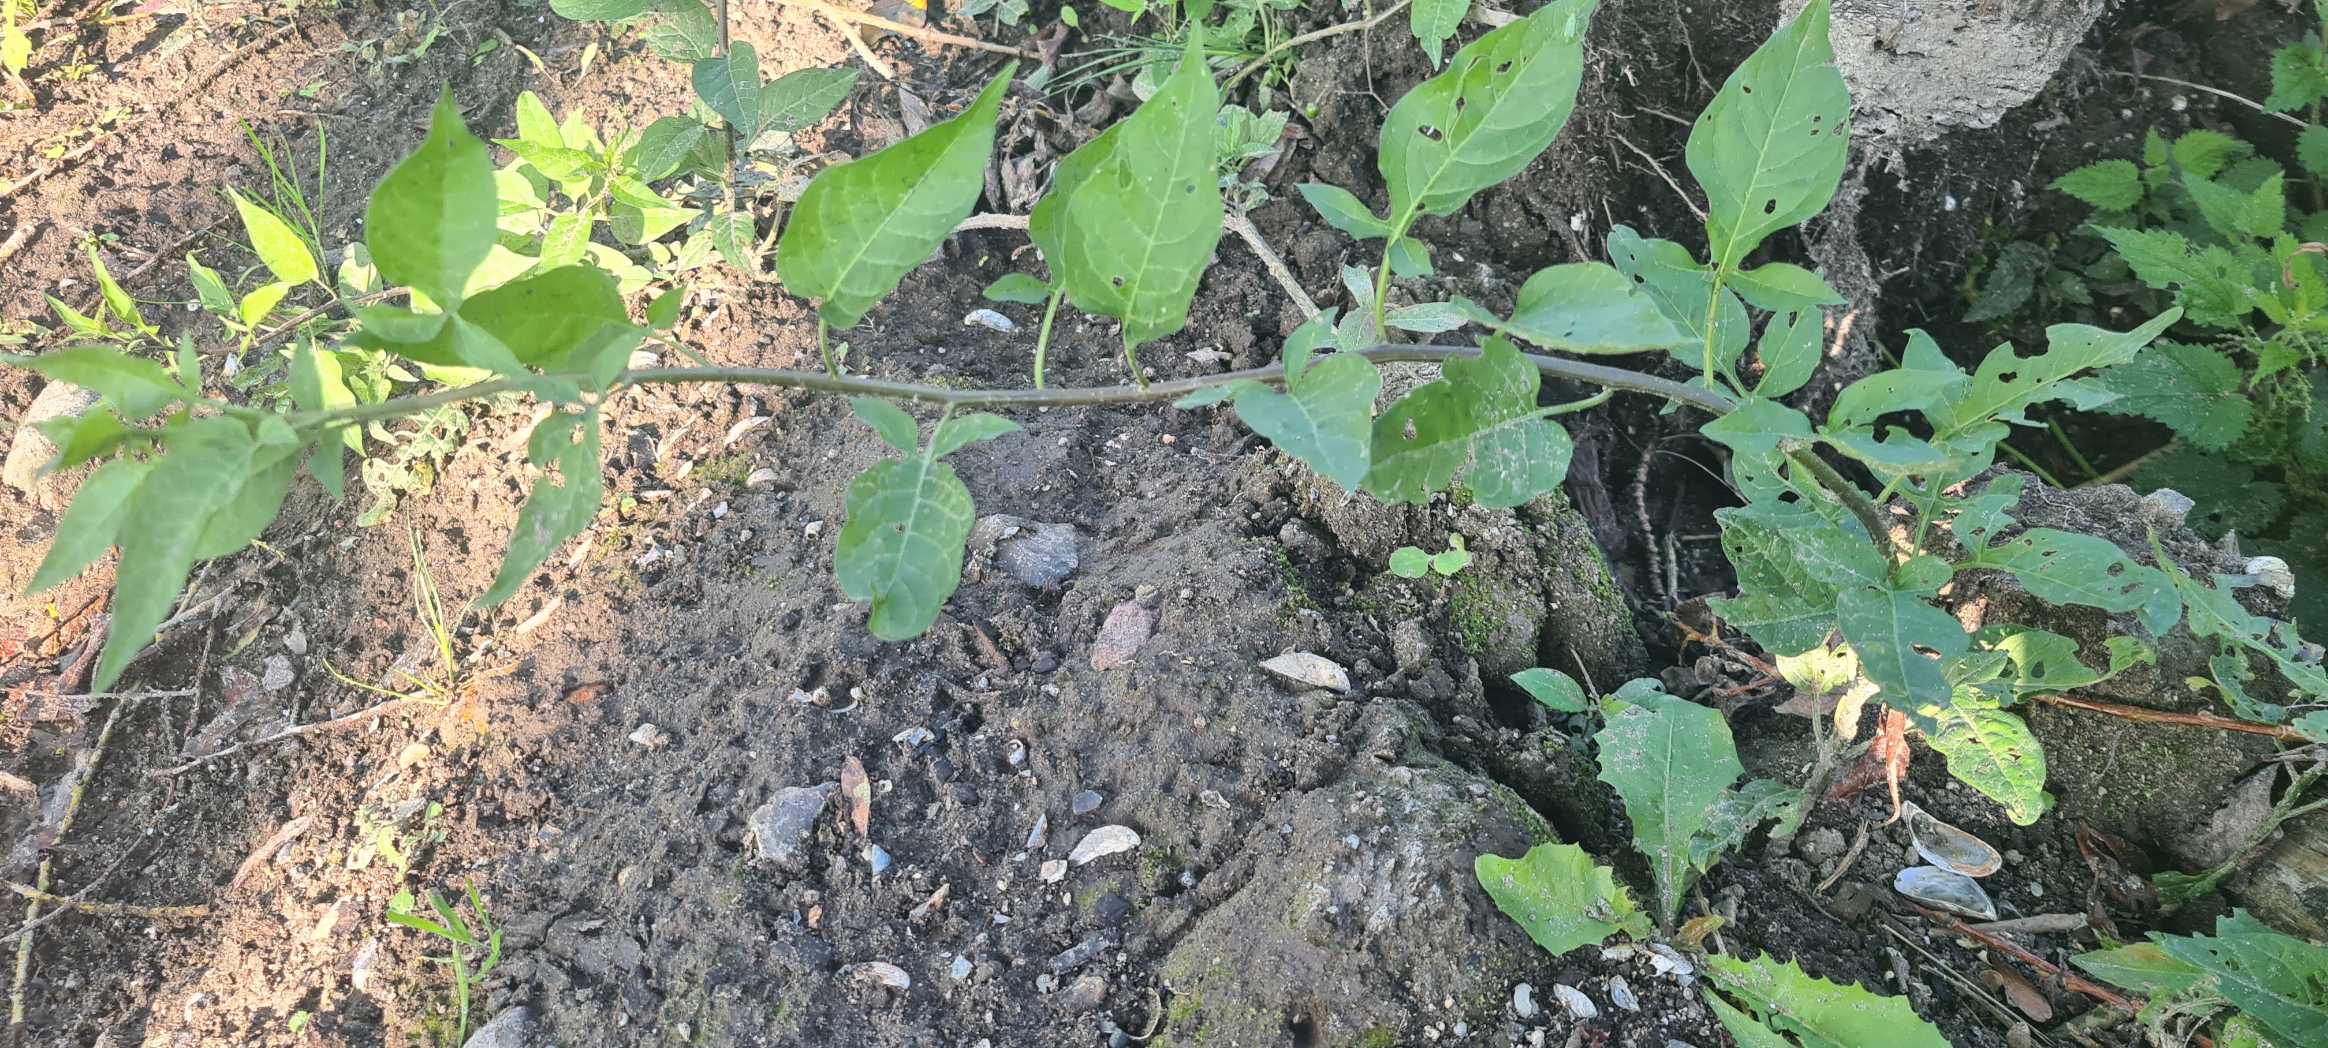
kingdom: Plantae
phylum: Tracheophyta
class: Magnoliopsida
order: Solanales
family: Solanaceae
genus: Solanum
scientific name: Solanum dulcamara
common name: Bittersød natskygge
